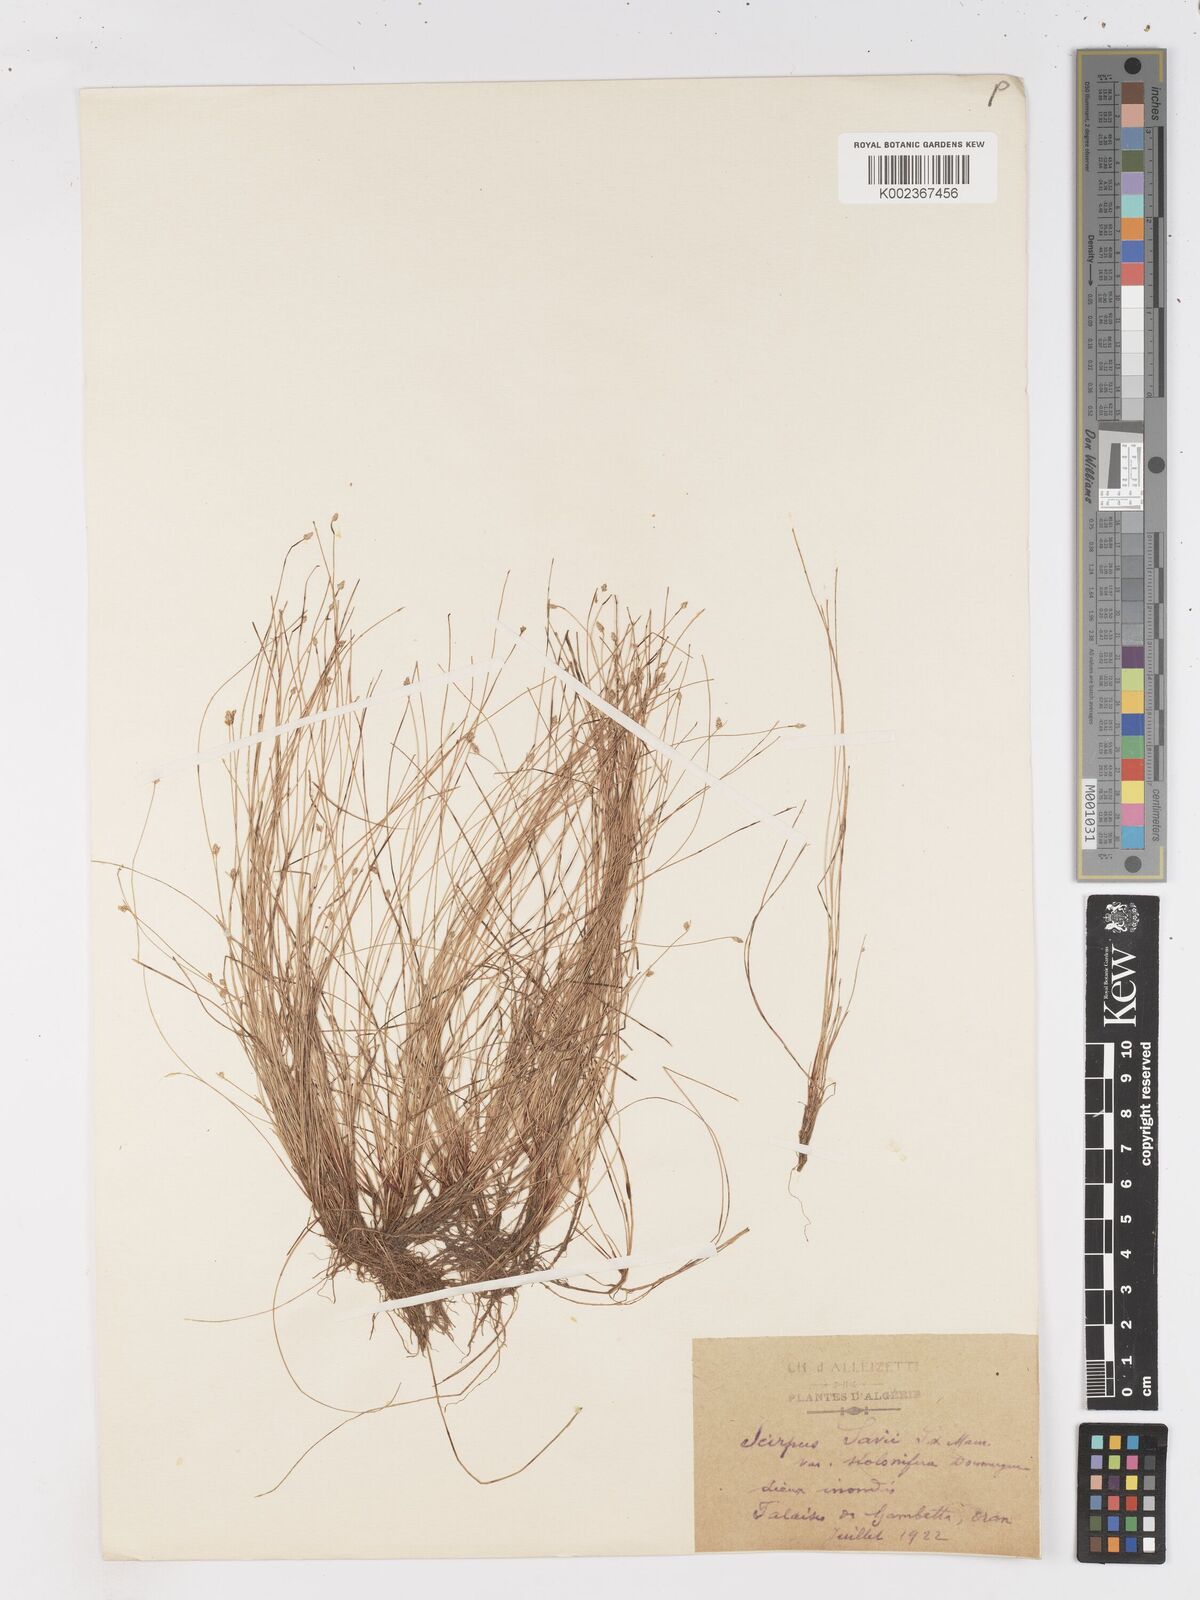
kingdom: Plantae
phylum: Tracheophyta
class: Liliopsida
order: Poales
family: Cyperaceae
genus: Isolepis
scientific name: Isolepis cernua
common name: Slender club-rush
